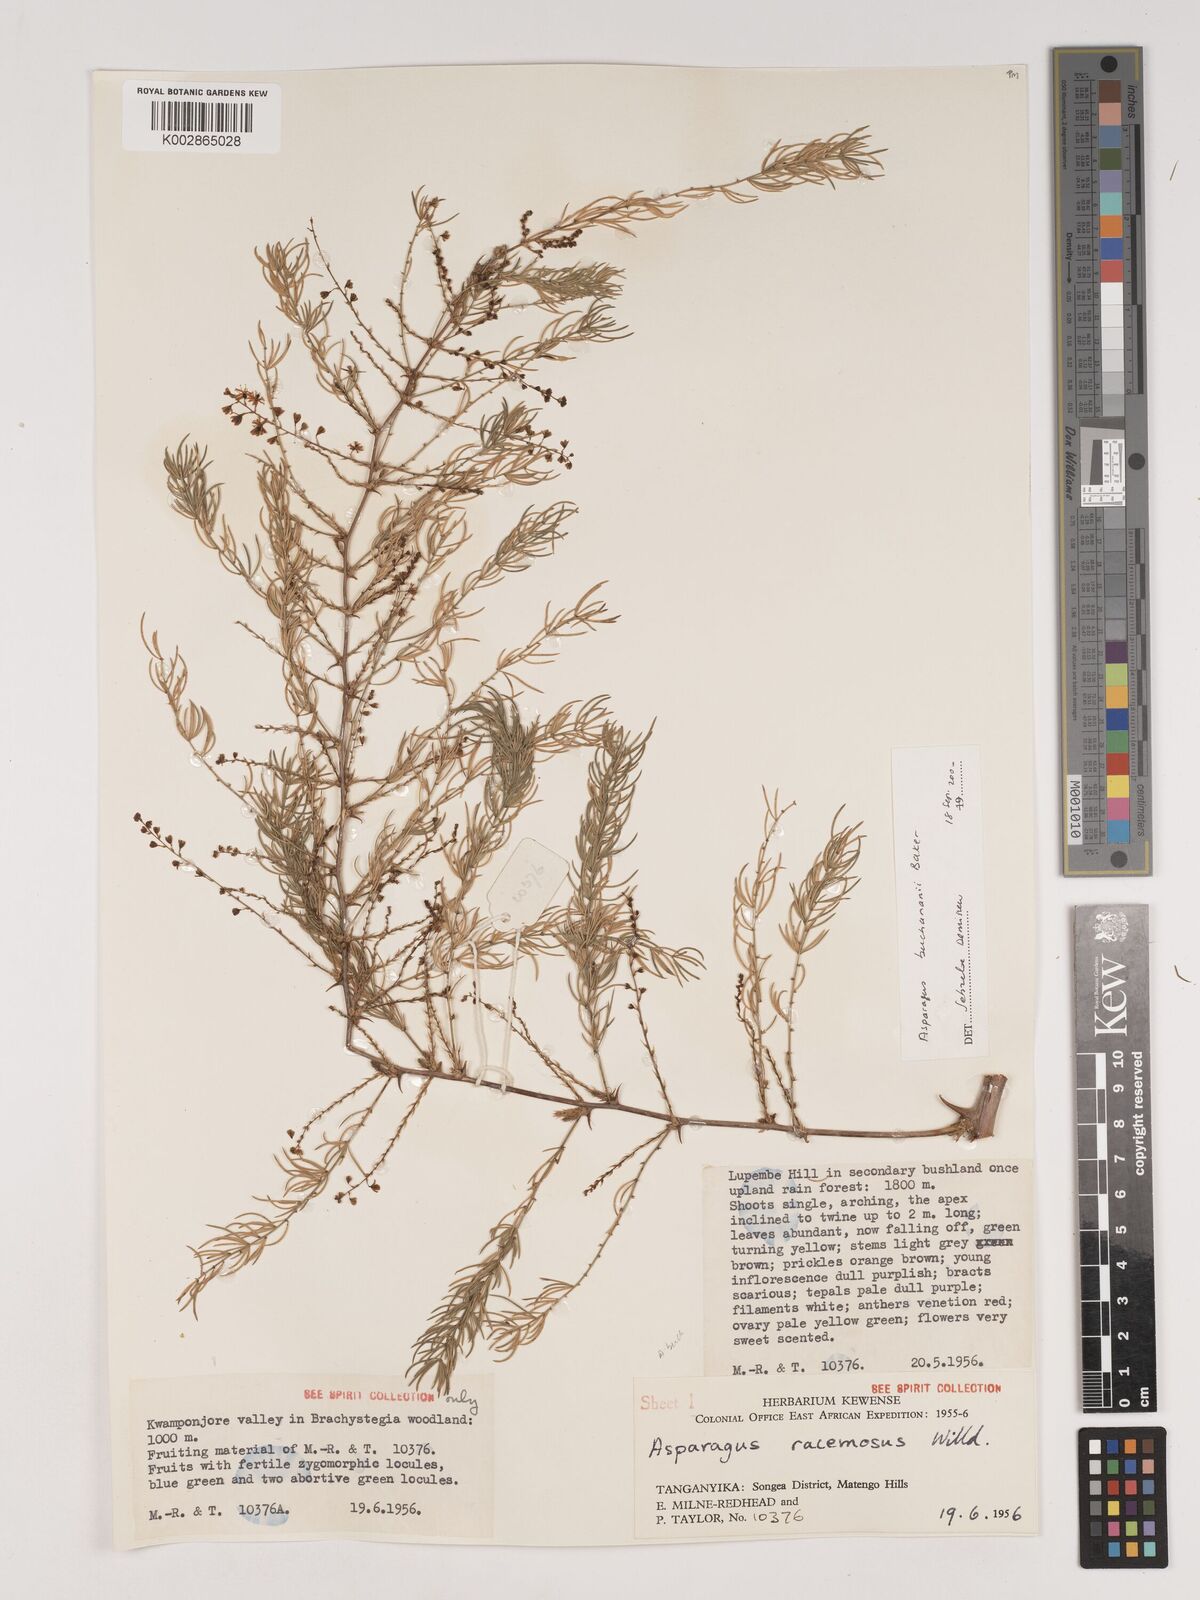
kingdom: Plantae
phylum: Tracheophyta
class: Liliopsida
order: Asparagales
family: Asparagaceae
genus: Asparagus
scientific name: Asparagus buchananii
